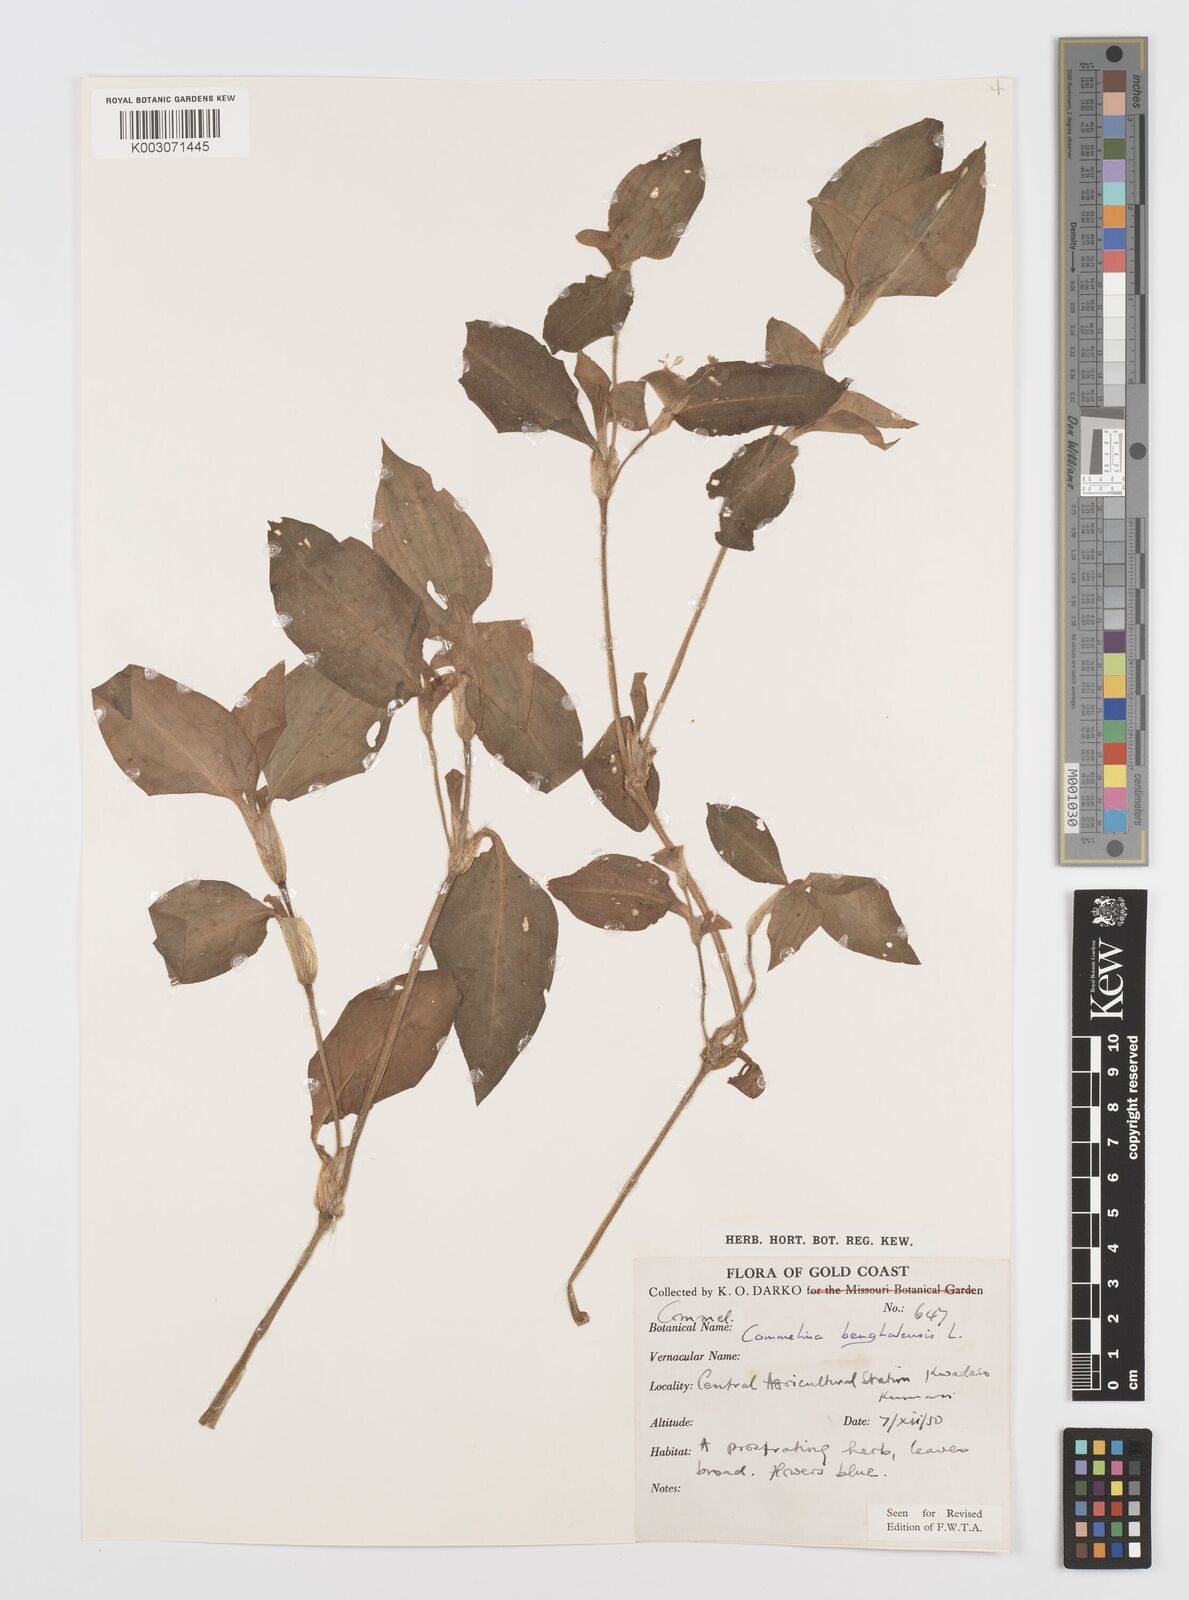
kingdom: Plantae
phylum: Tracheophyta
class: Liliopsida
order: Commelinales
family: Commelinaceae
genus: Commelina
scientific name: Commelina benghalensis
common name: Jio
